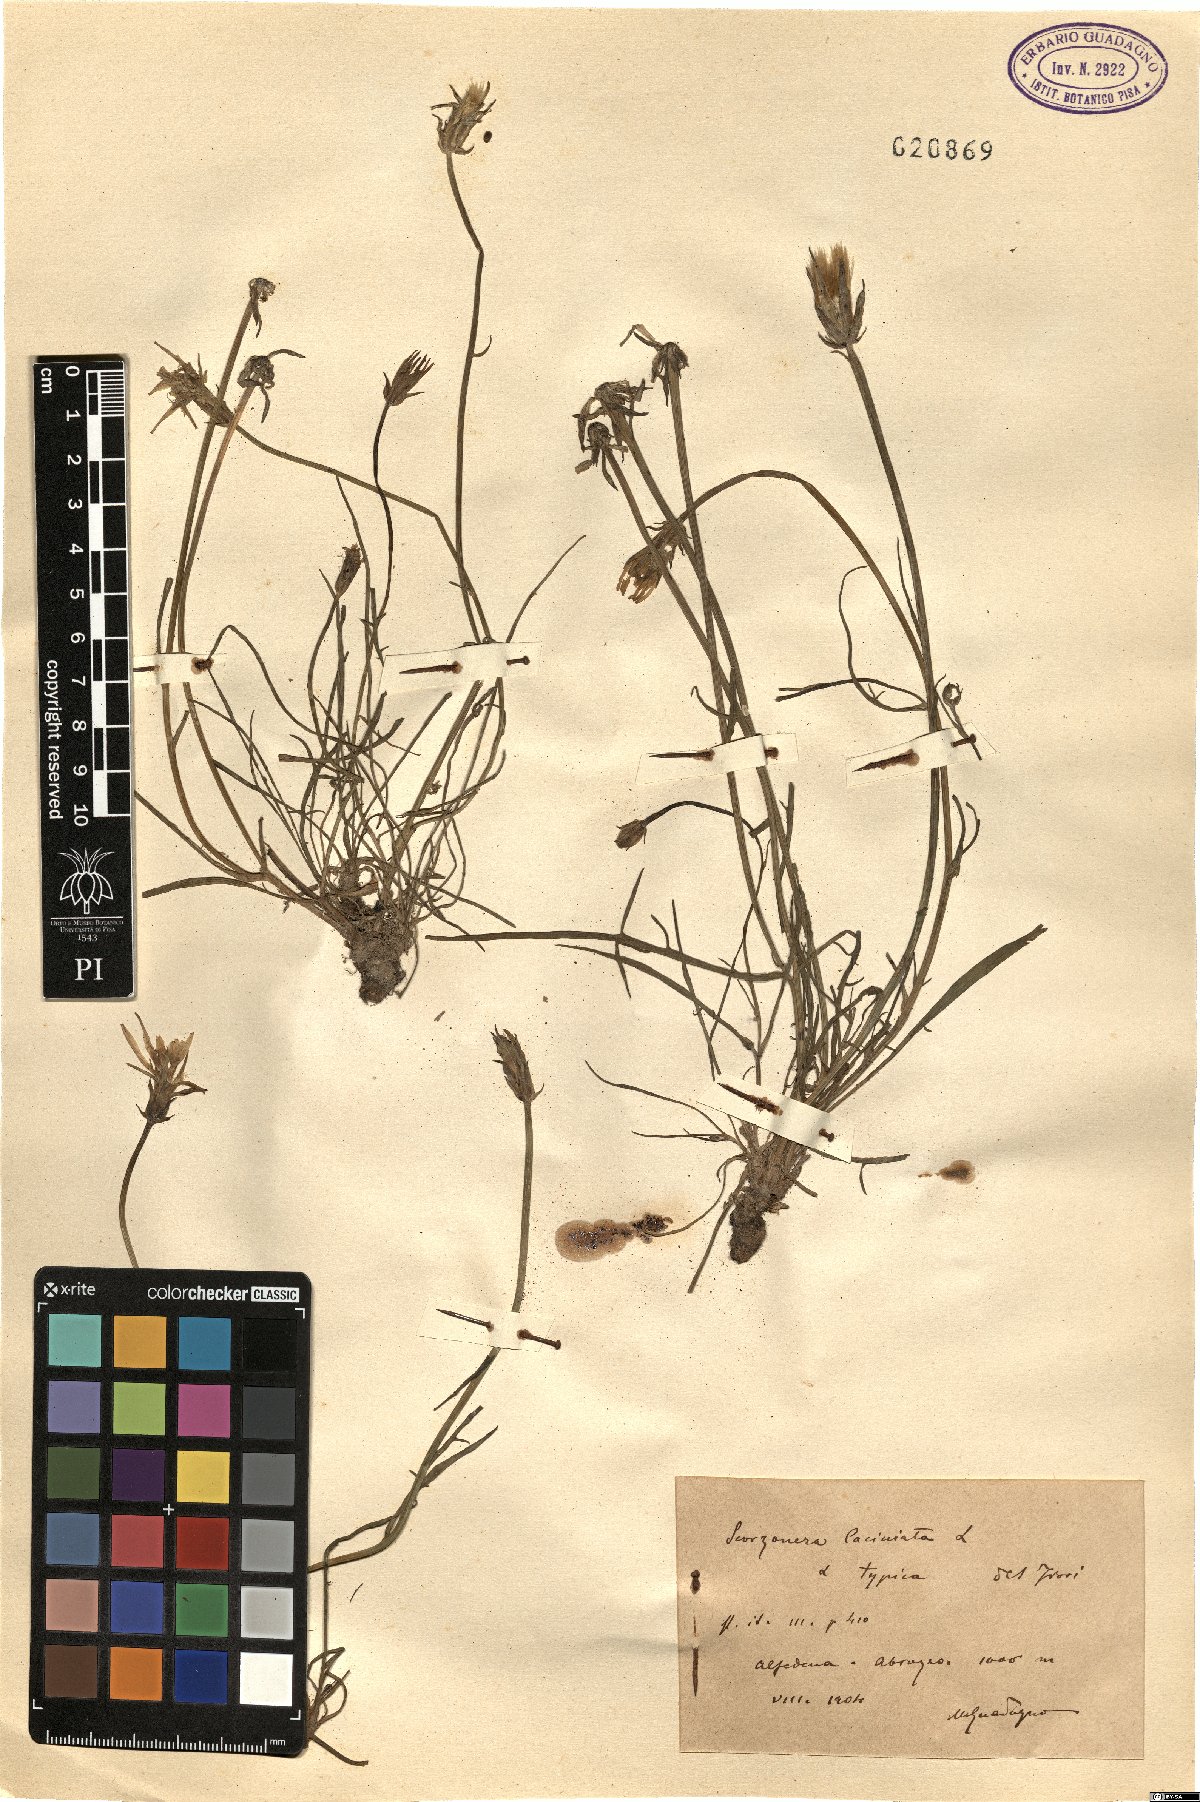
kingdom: Plantae
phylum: Tracheophyta
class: Magnoliopsida
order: Asterales
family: Asteraceae
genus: Scorzonera
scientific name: Scorzonera laciniata
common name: Cutleaf vipergrass
